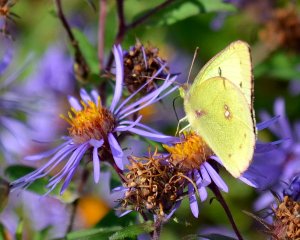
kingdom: Animalia
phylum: Arthropoda
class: Insecta
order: Lepidoptera
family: Pieridae
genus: Colias
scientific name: Colias philodice
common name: Clouded Sulphur
